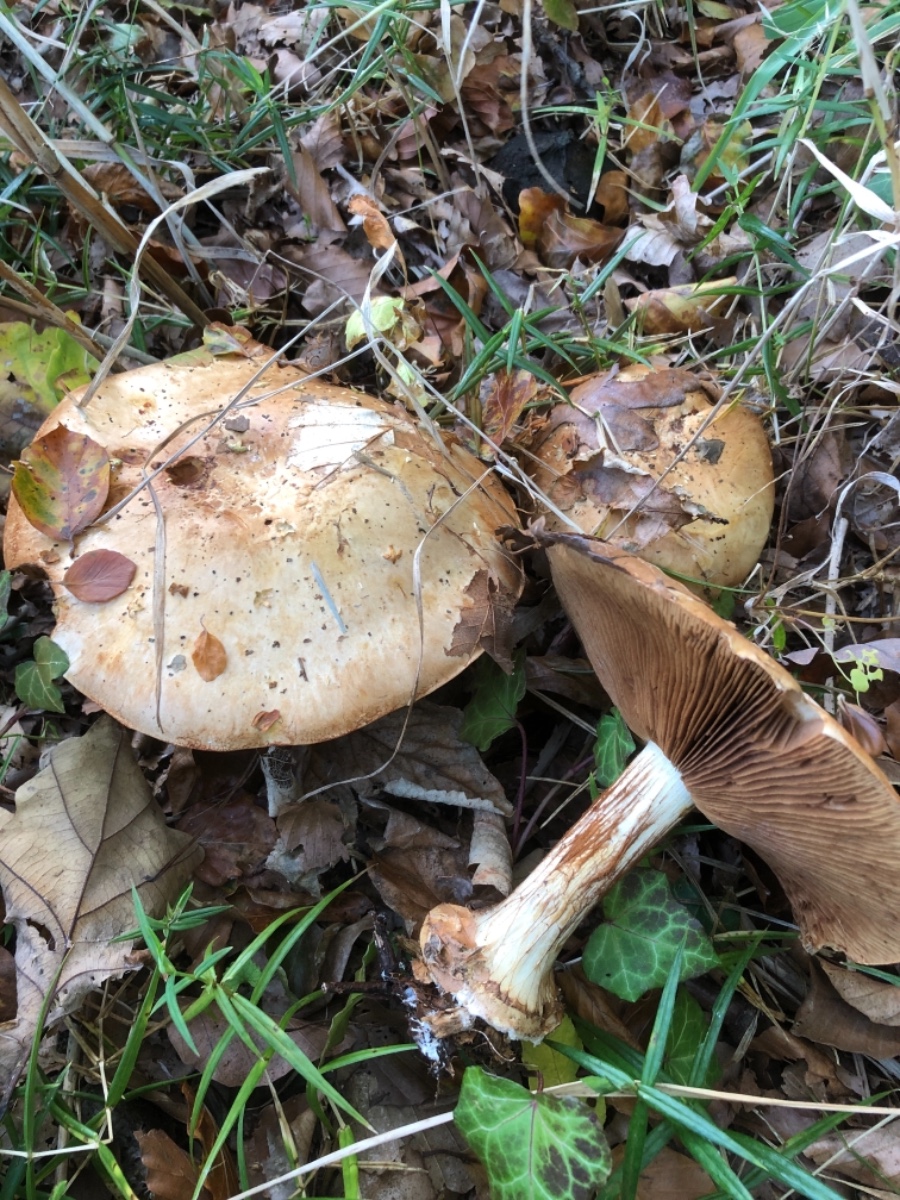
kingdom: Fungi
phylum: Basidiomycota
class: Agaricomycetes
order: Agaricales
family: Cortinariaceae
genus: Calonarius
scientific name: Calonarius humolens
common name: radise-slørhat
